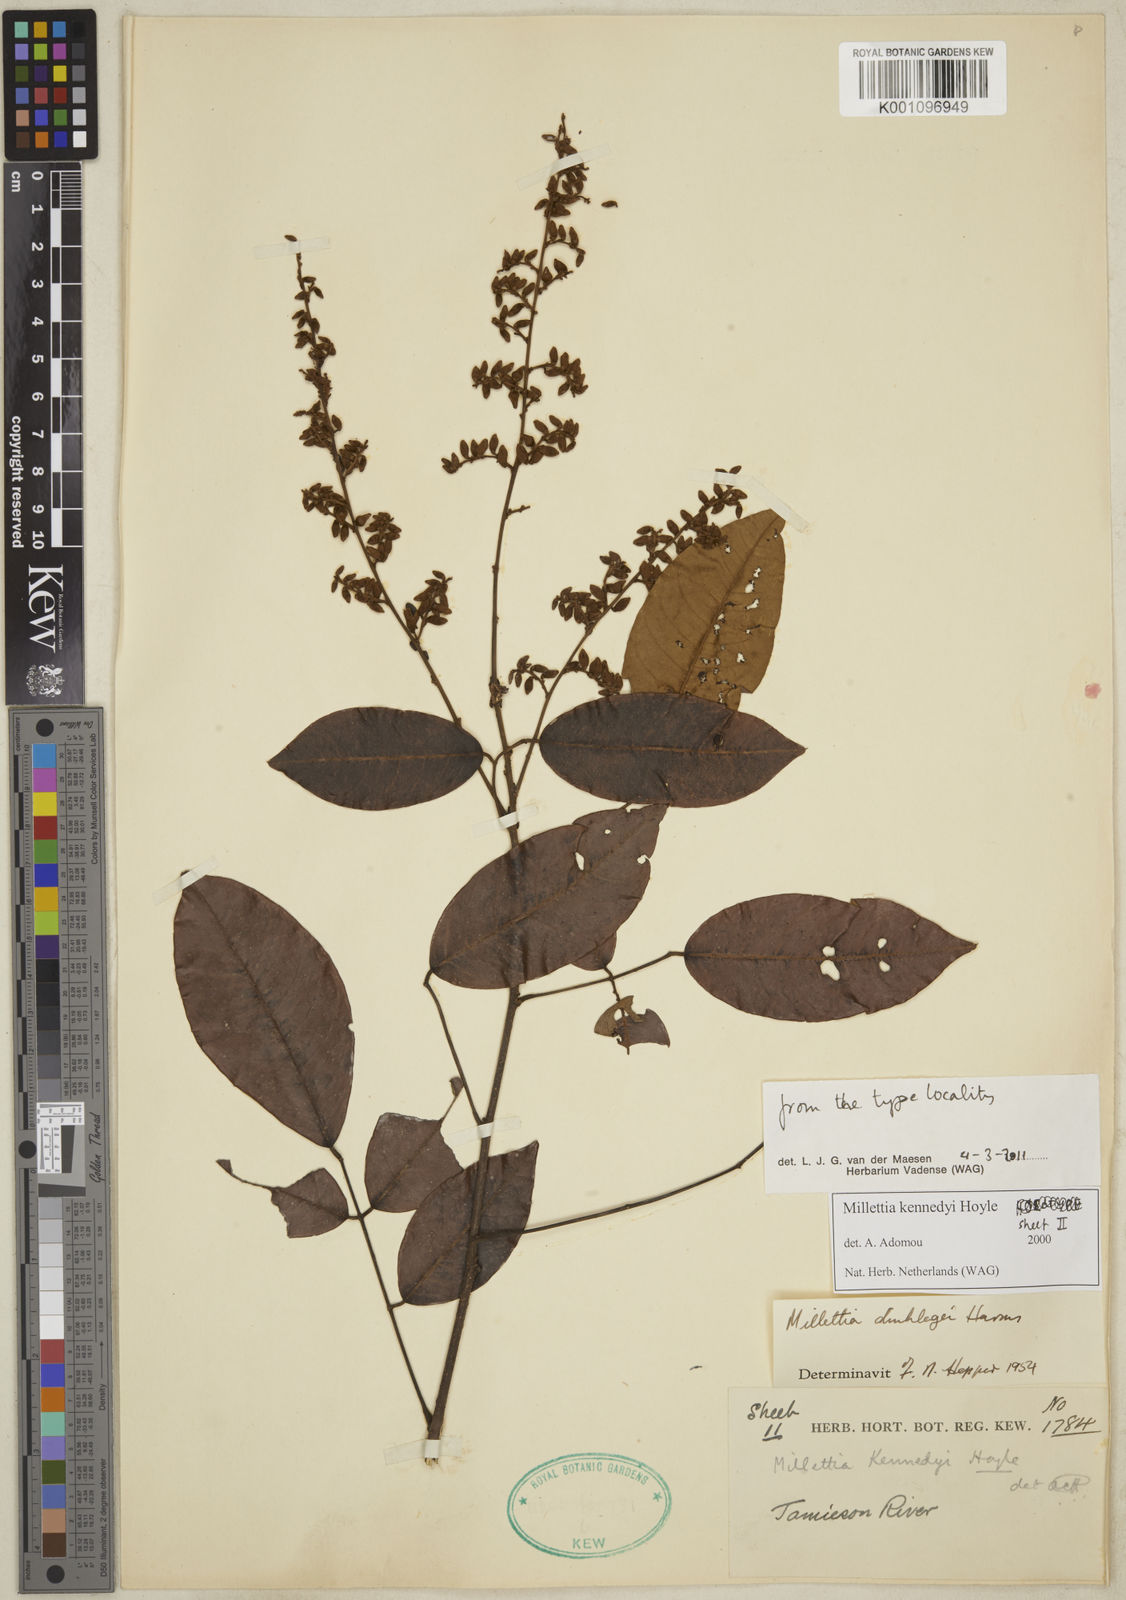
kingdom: Plantae
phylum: Tracheophyta
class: Magnoliopsida
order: Fabales
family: Fabaceae
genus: Millettia
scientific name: Millettia kennedyi
